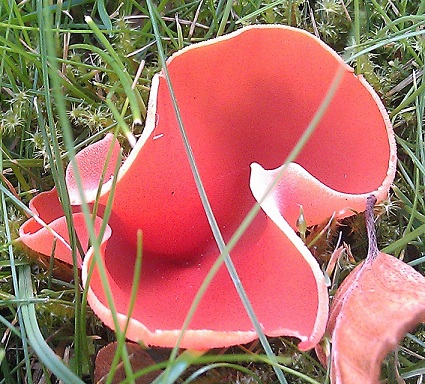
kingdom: Fungi
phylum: Ascomycota
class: Pezizomycetes
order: Pezizales
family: Pyronemataceae
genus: Aleuria
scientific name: Aleuria aurantia
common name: almindelig orangebæger
